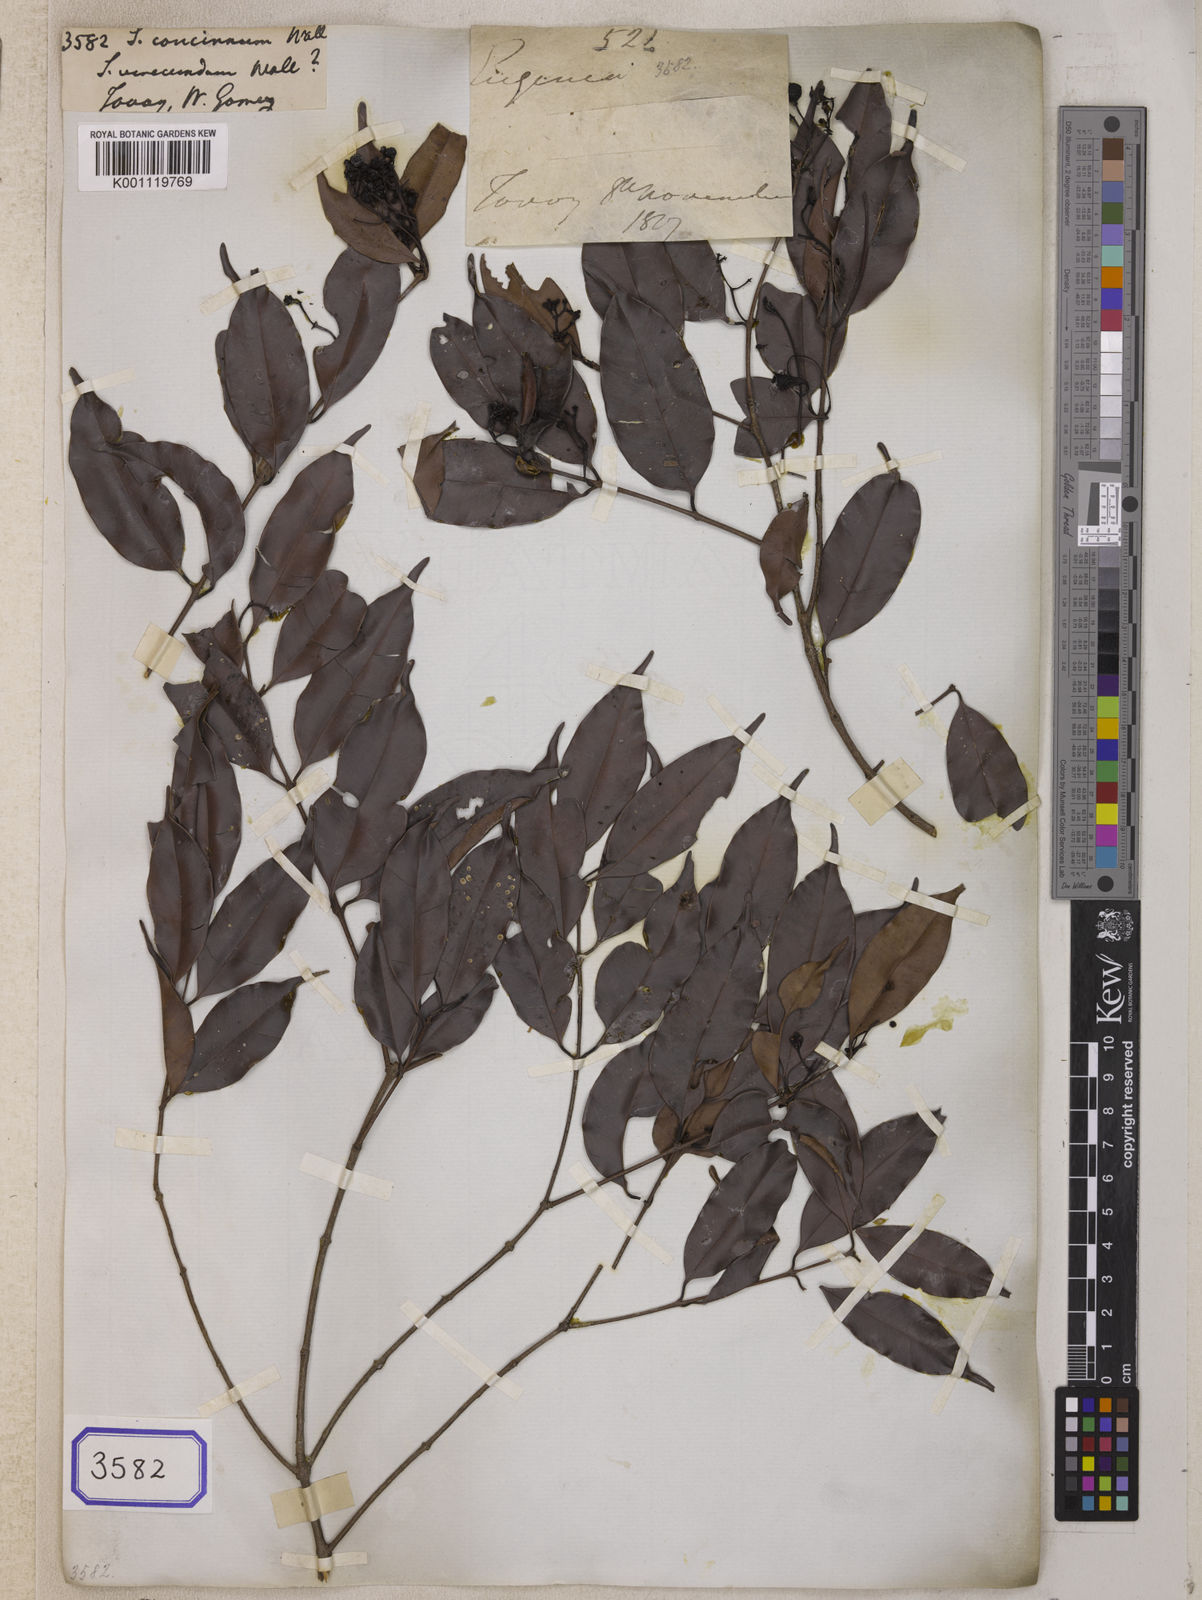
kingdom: Plantae
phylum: Tracheophyta
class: Magnoliopsida
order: Myrtales
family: Myrtaceae
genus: Syzygium
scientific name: Syzygium
